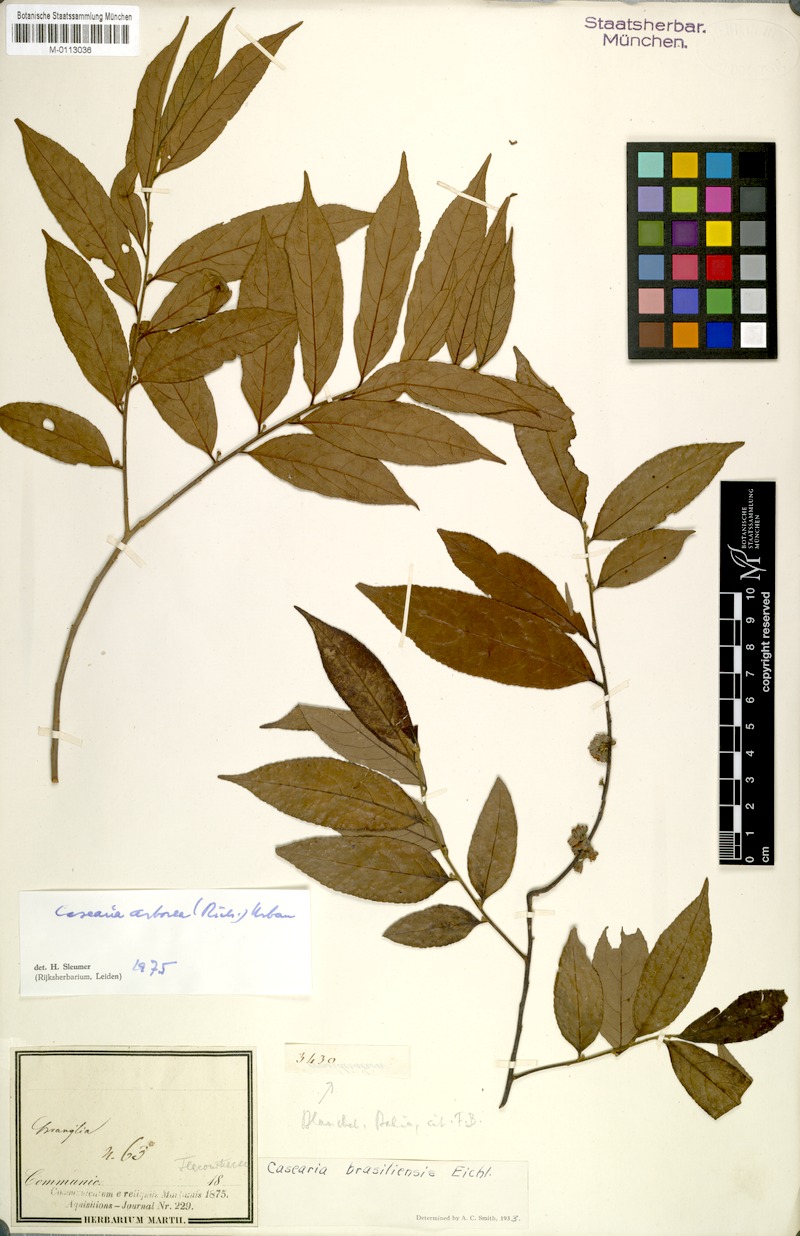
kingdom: Plantae
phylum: Tracheophyta
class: Magnoliopsida
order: Malpighiales
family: Salicaceae
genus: Casearia
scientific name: Casearia arborea
